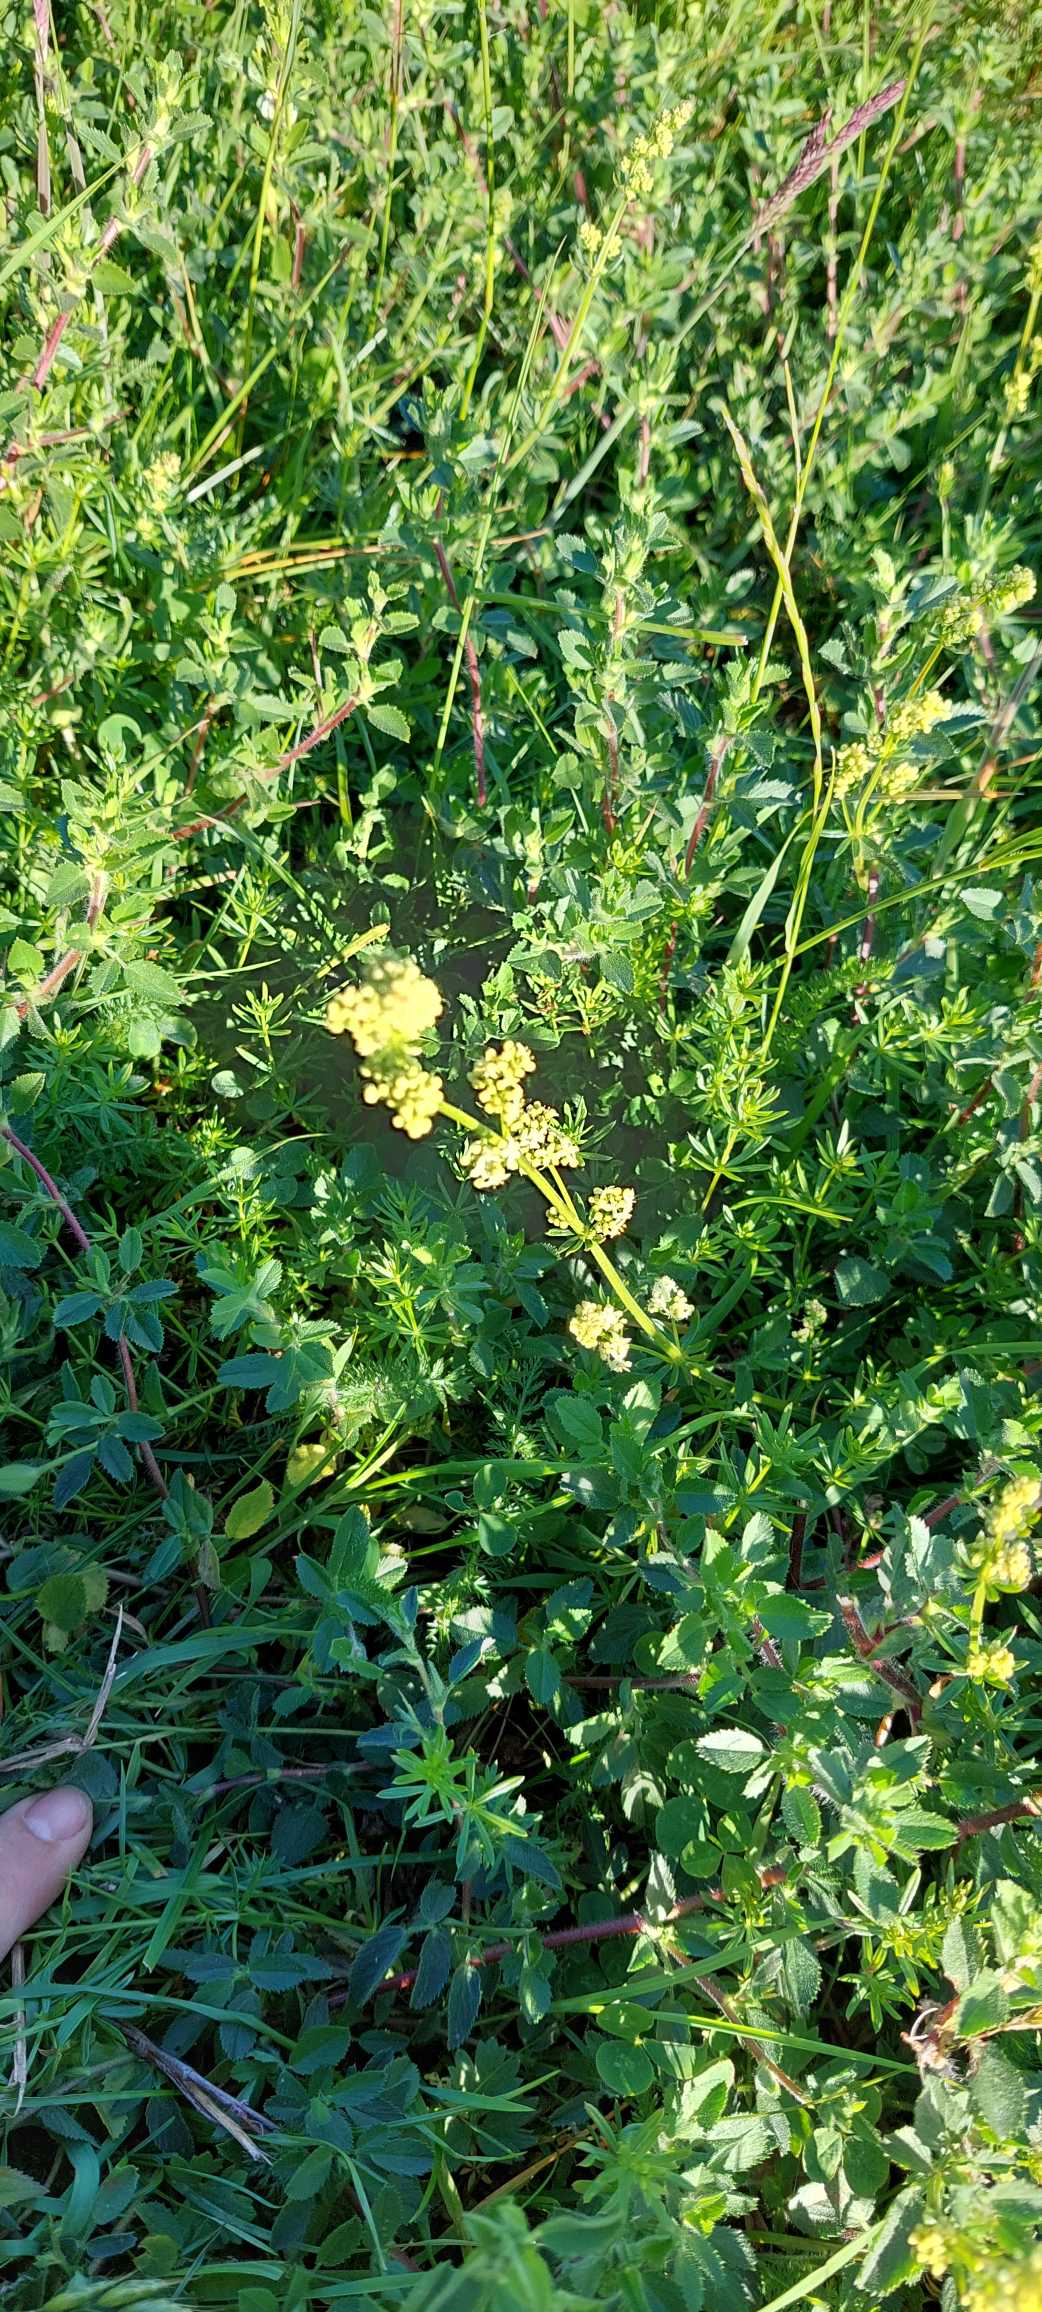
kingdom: Plantae
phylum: Tracheophyta
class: Magnoliopsida
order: Gentianales
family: Rubiaceae
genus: Galium
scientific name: Galium mollugo
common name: Hvid snerre
